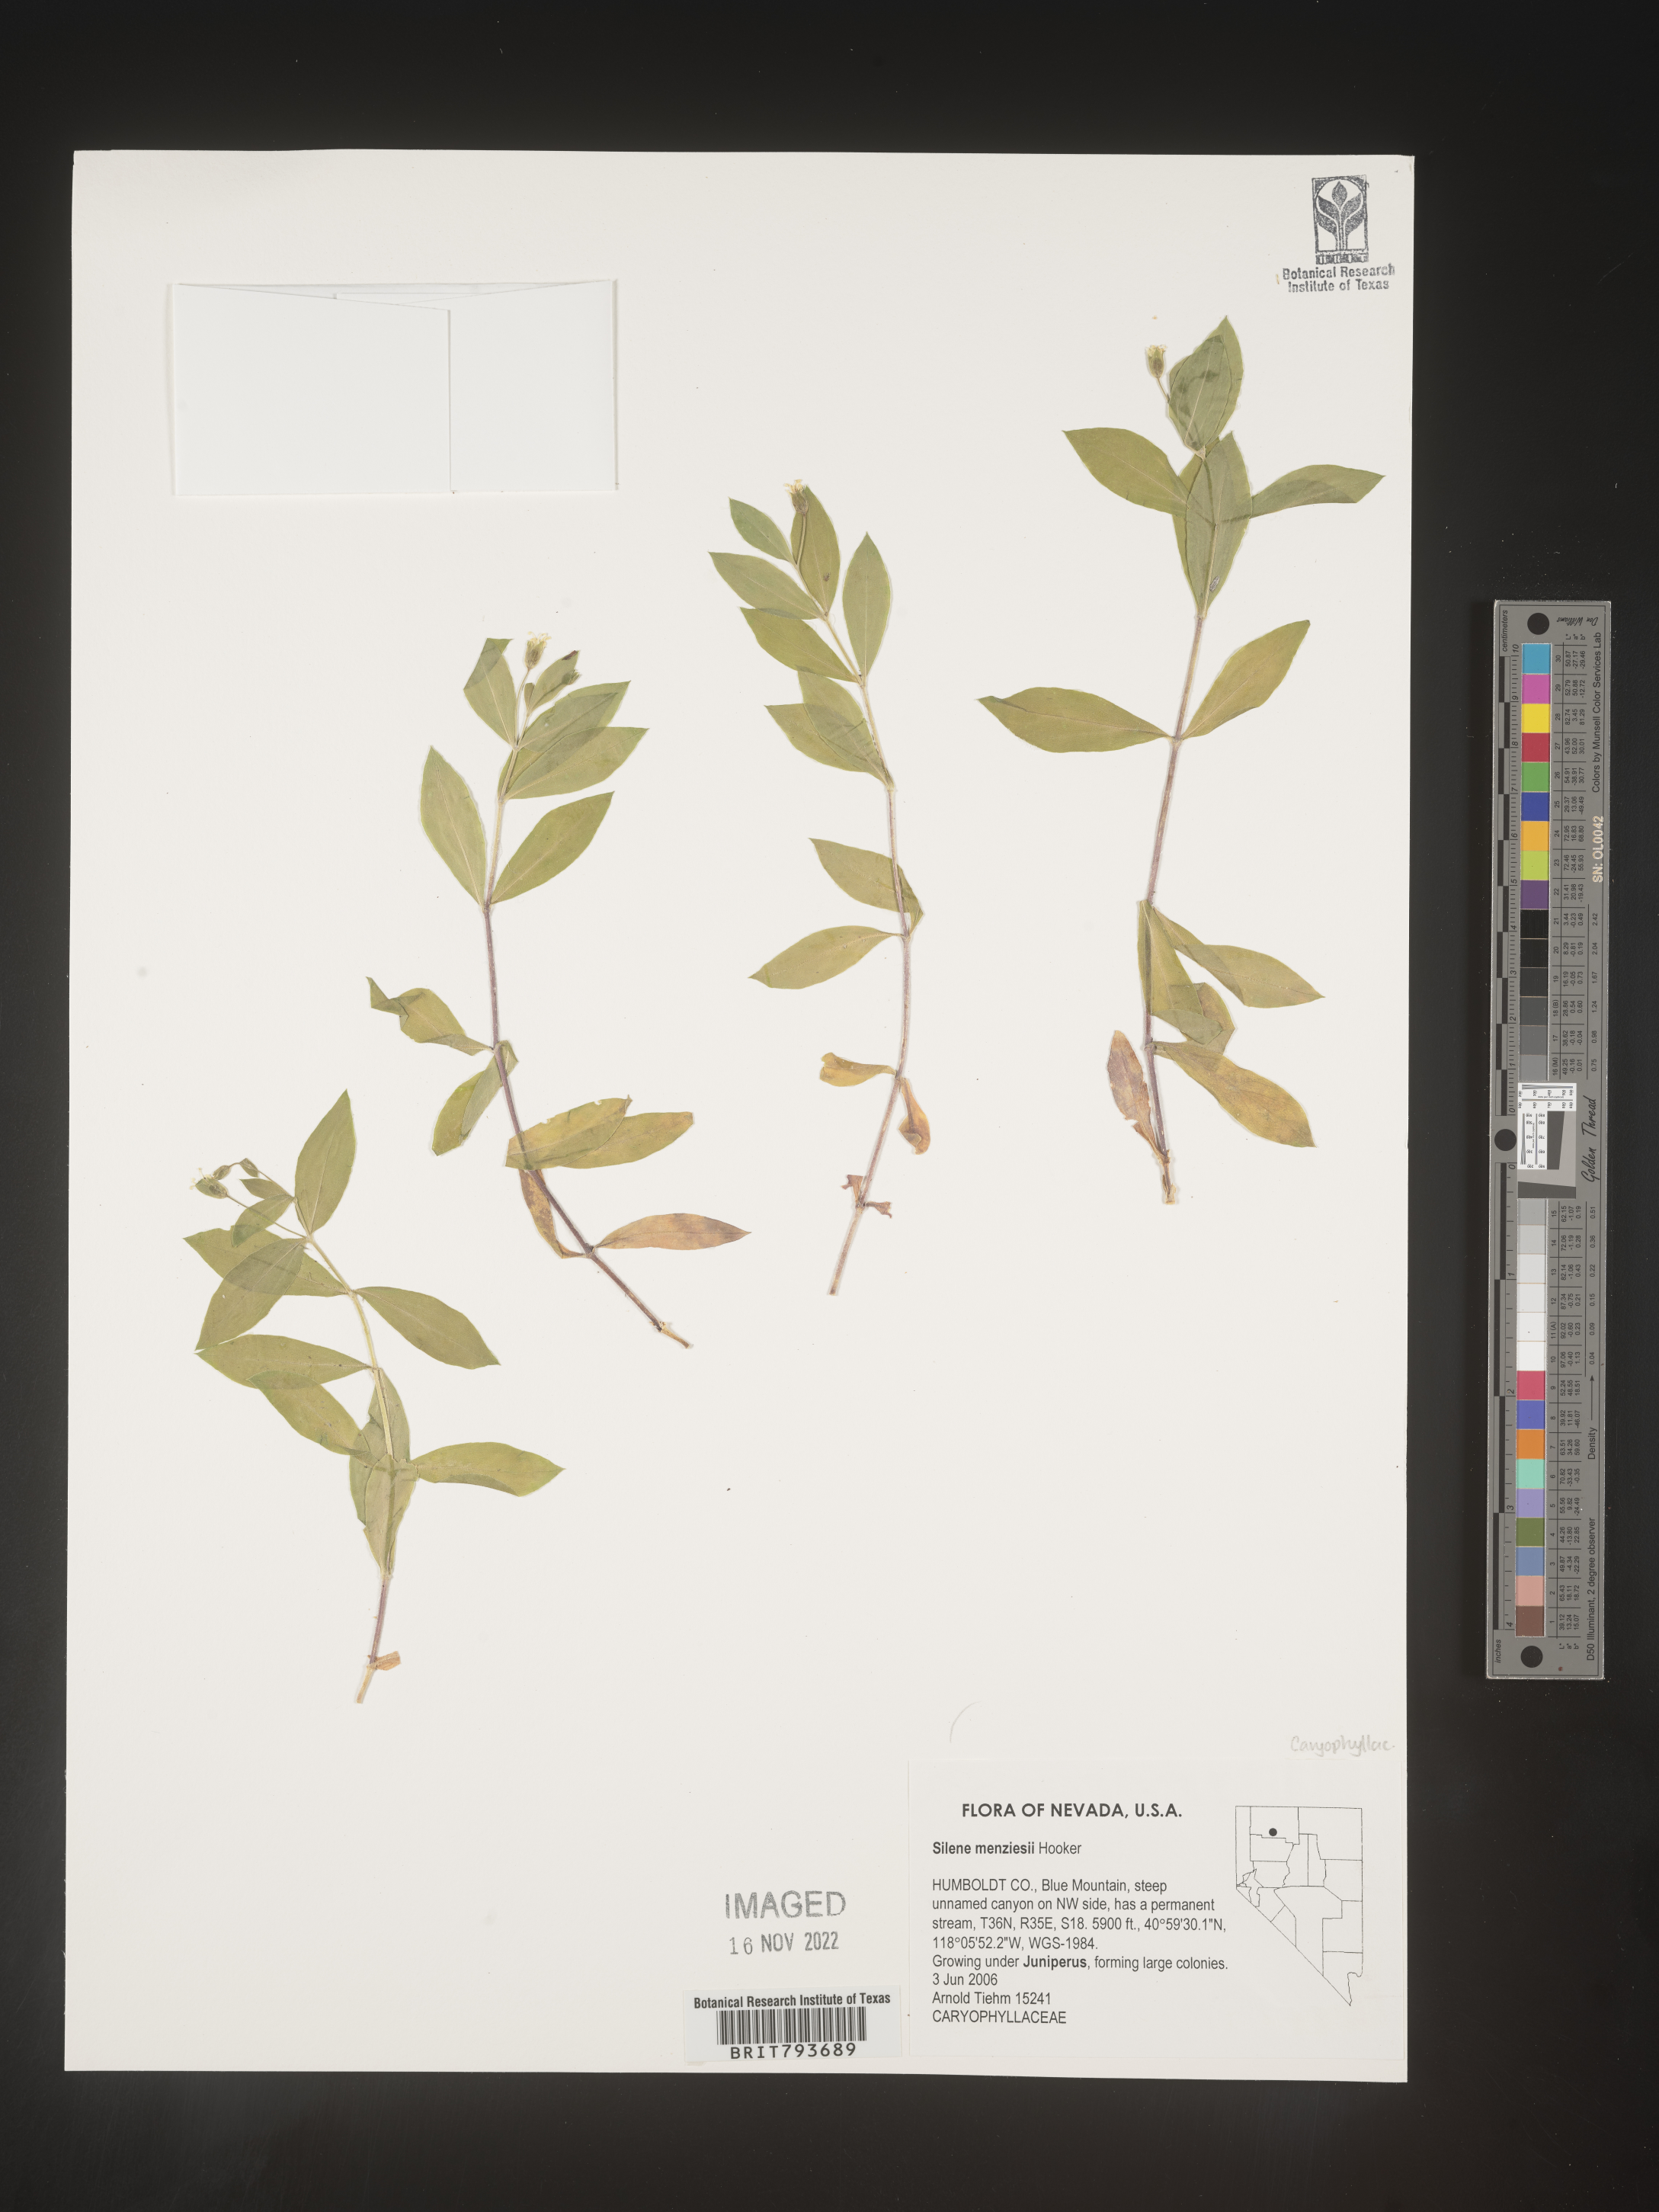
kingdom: Plantae
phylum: Tracheophyta
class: Magnoliopsida
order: Caryophyllales
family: Caryophyllaceae
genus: Silene
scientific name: Silene menziesii
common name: Menzies's catchfly
